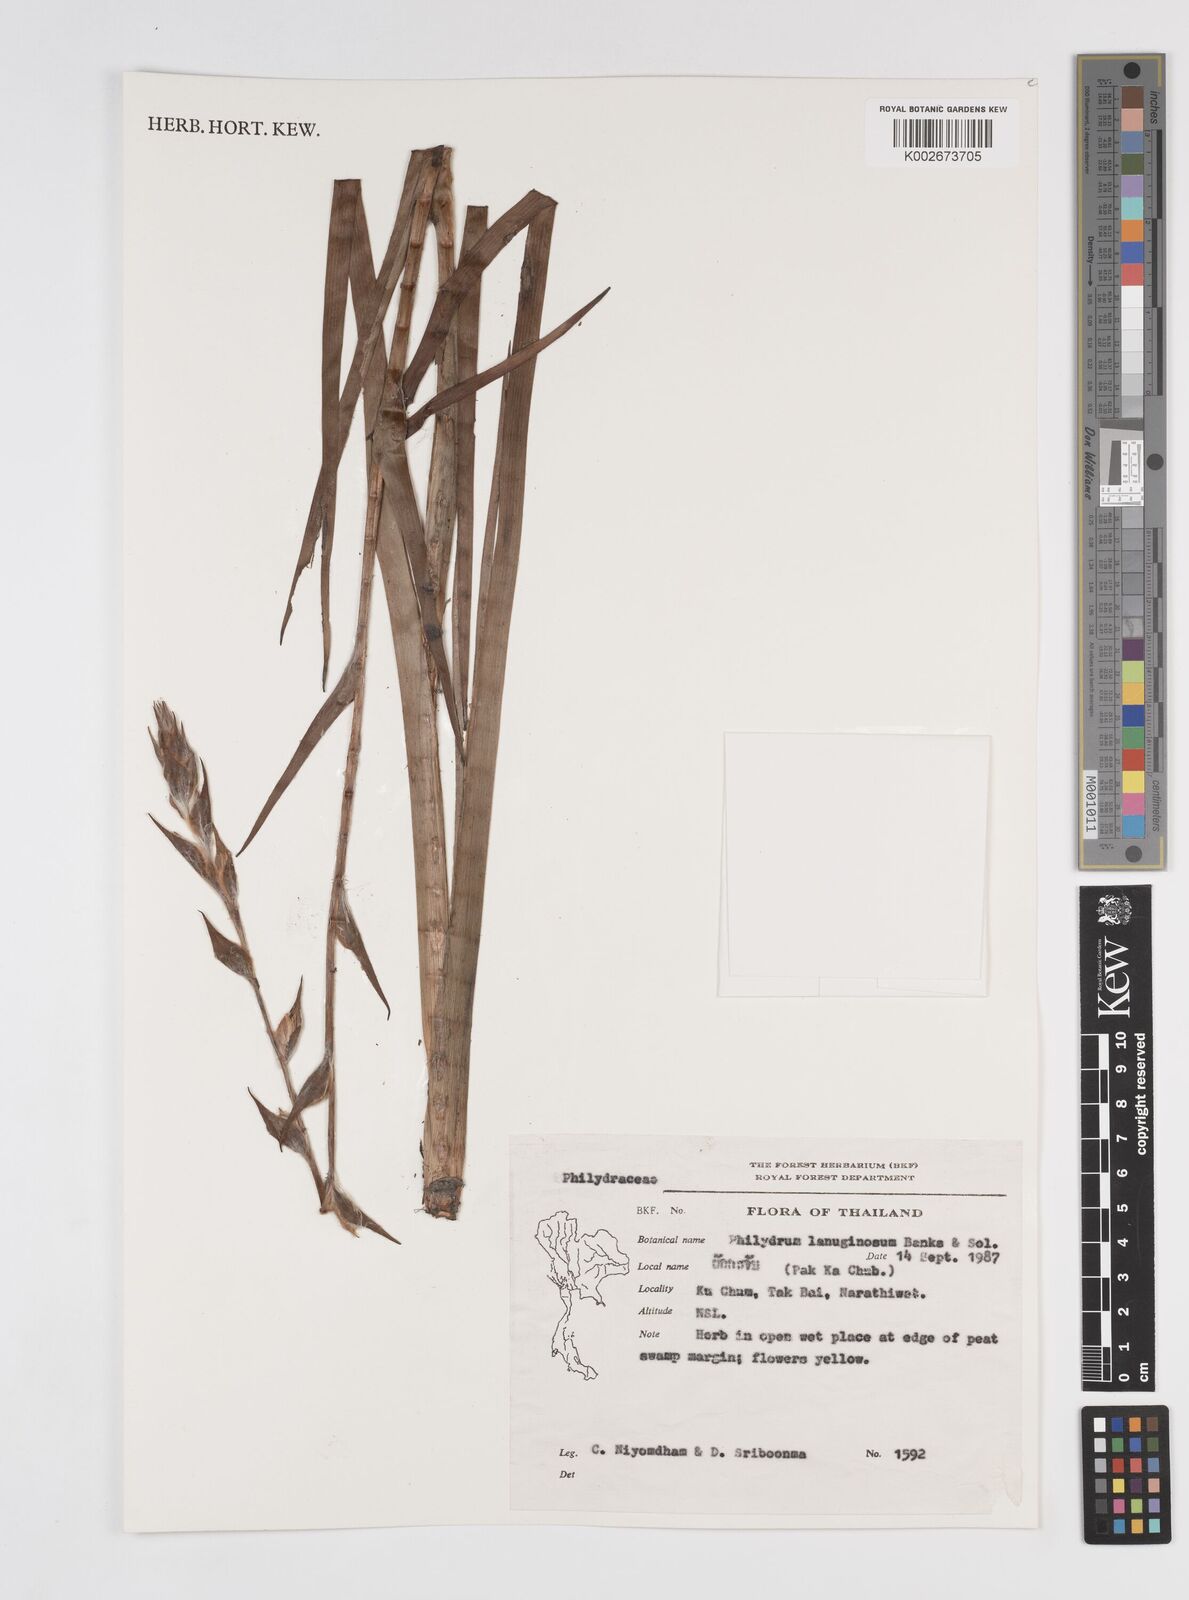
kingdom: Plantae
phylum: Tracheophyta
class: Liliopsida
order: Commelinales
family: Philydraceae
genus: Philydrum
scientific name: Philydrum lanuginosum
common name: Woolly frog's mouth
